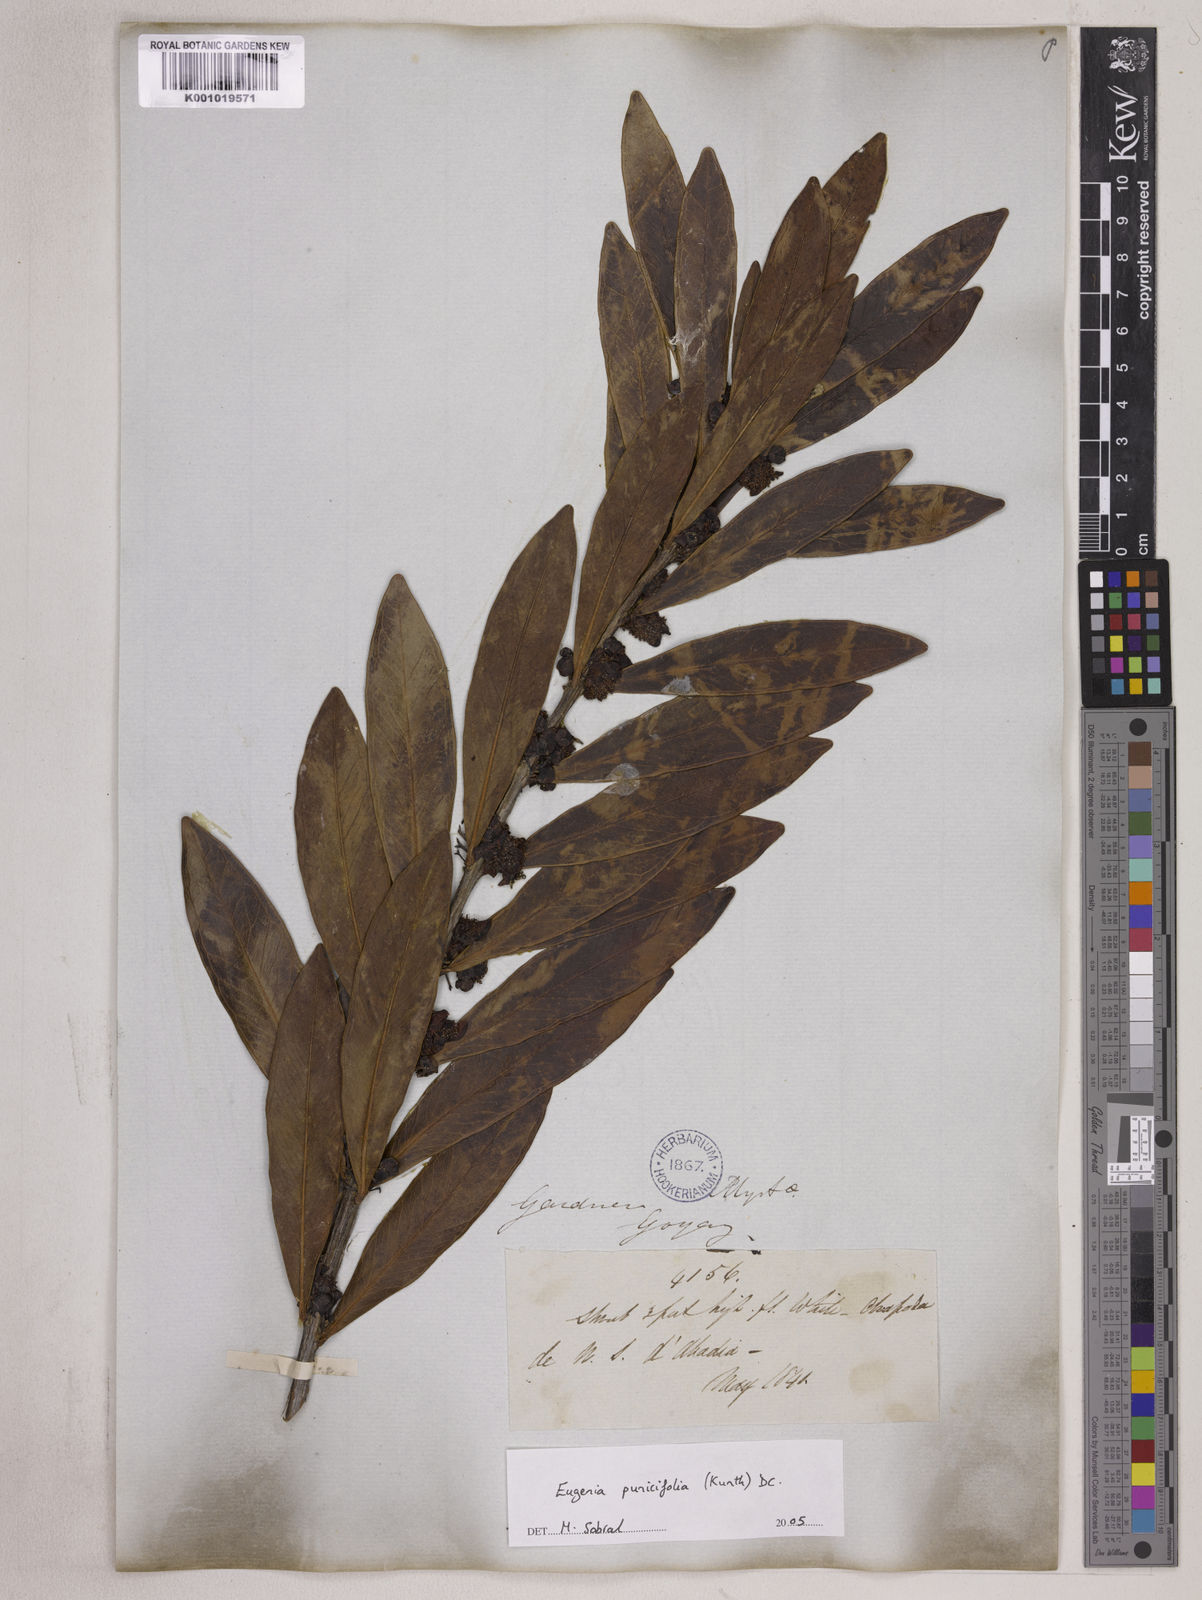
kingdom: Plantae
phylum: Tracheophyta
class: Magnoliopsida
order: Myrtales
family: Myrtaceae
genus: Eugenia
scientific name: Eugenia punicifolia
